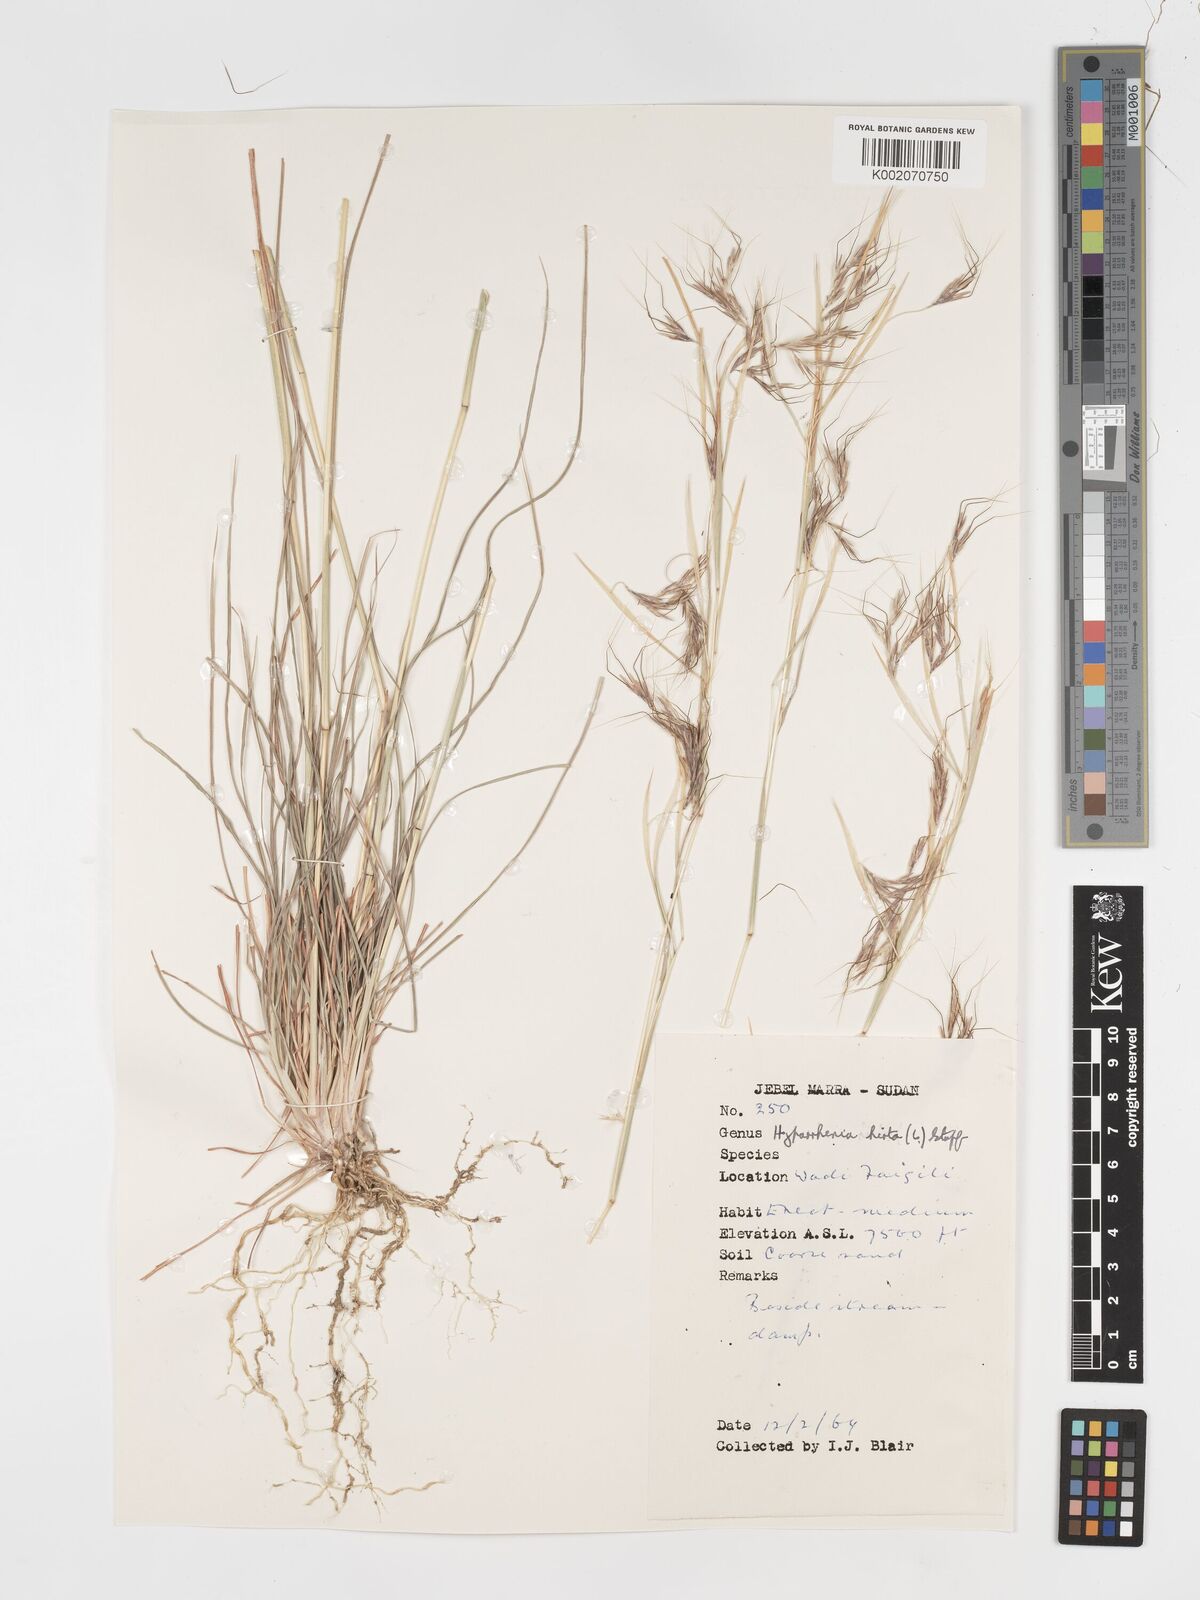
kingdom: Plantae
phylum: Tracheophyta
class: Liliopsida
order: Poales
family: Poaceae
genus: Hyparrhenia
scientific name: Hyparrhenia hirta
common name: Thatching grass
